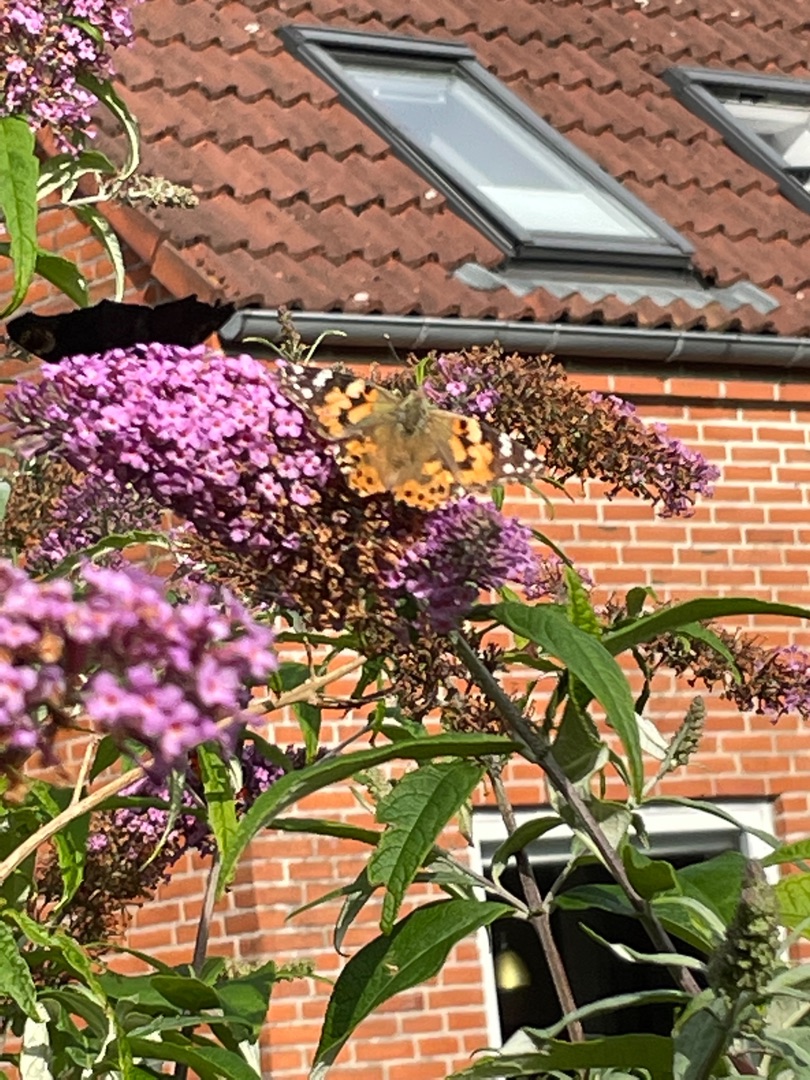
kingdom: Animalia
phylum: Arthropoda
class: Insecta
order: Lepidoptera
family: Nymphalidae
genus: Vanessa
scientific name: Vanessa cardui
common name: Tidselsommerfugl
